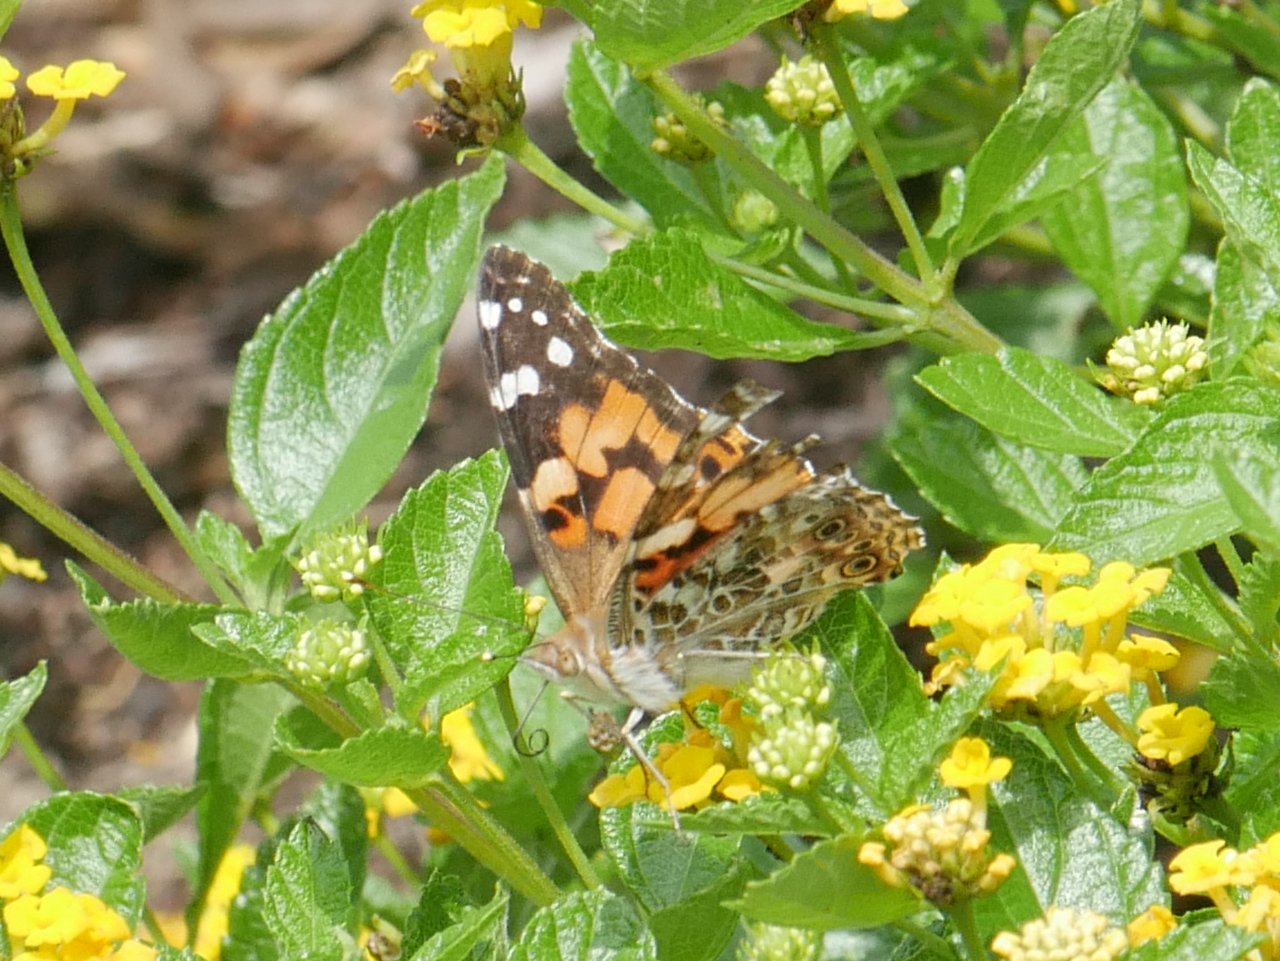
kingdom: Animalia
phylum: Arthropoda
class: Insecta
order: Lepidoptera
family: Nymphalidae
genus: Vanessa
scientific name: Vanessa cardui
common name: Painted Lady
